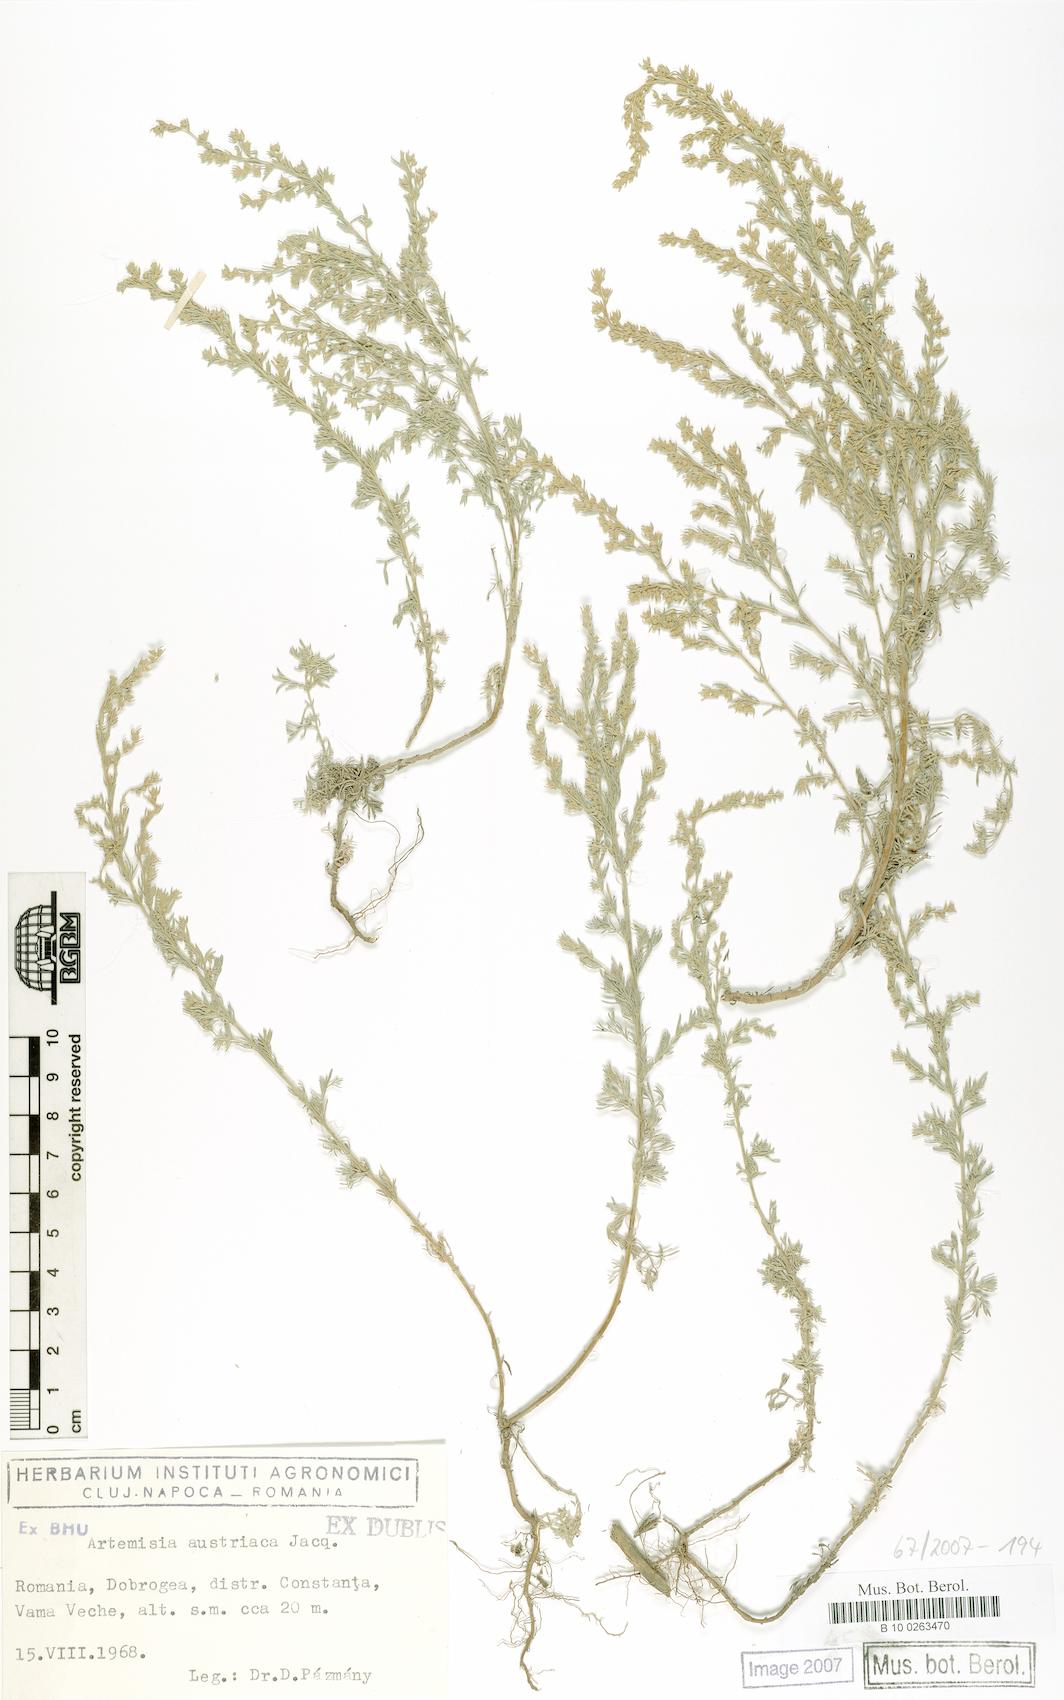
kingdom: Plantae
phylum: Tracheophyta
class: Magnoliopsida
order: Asterales
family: Asteraceae
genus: Artemisia
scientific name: Artemisia austriaca
